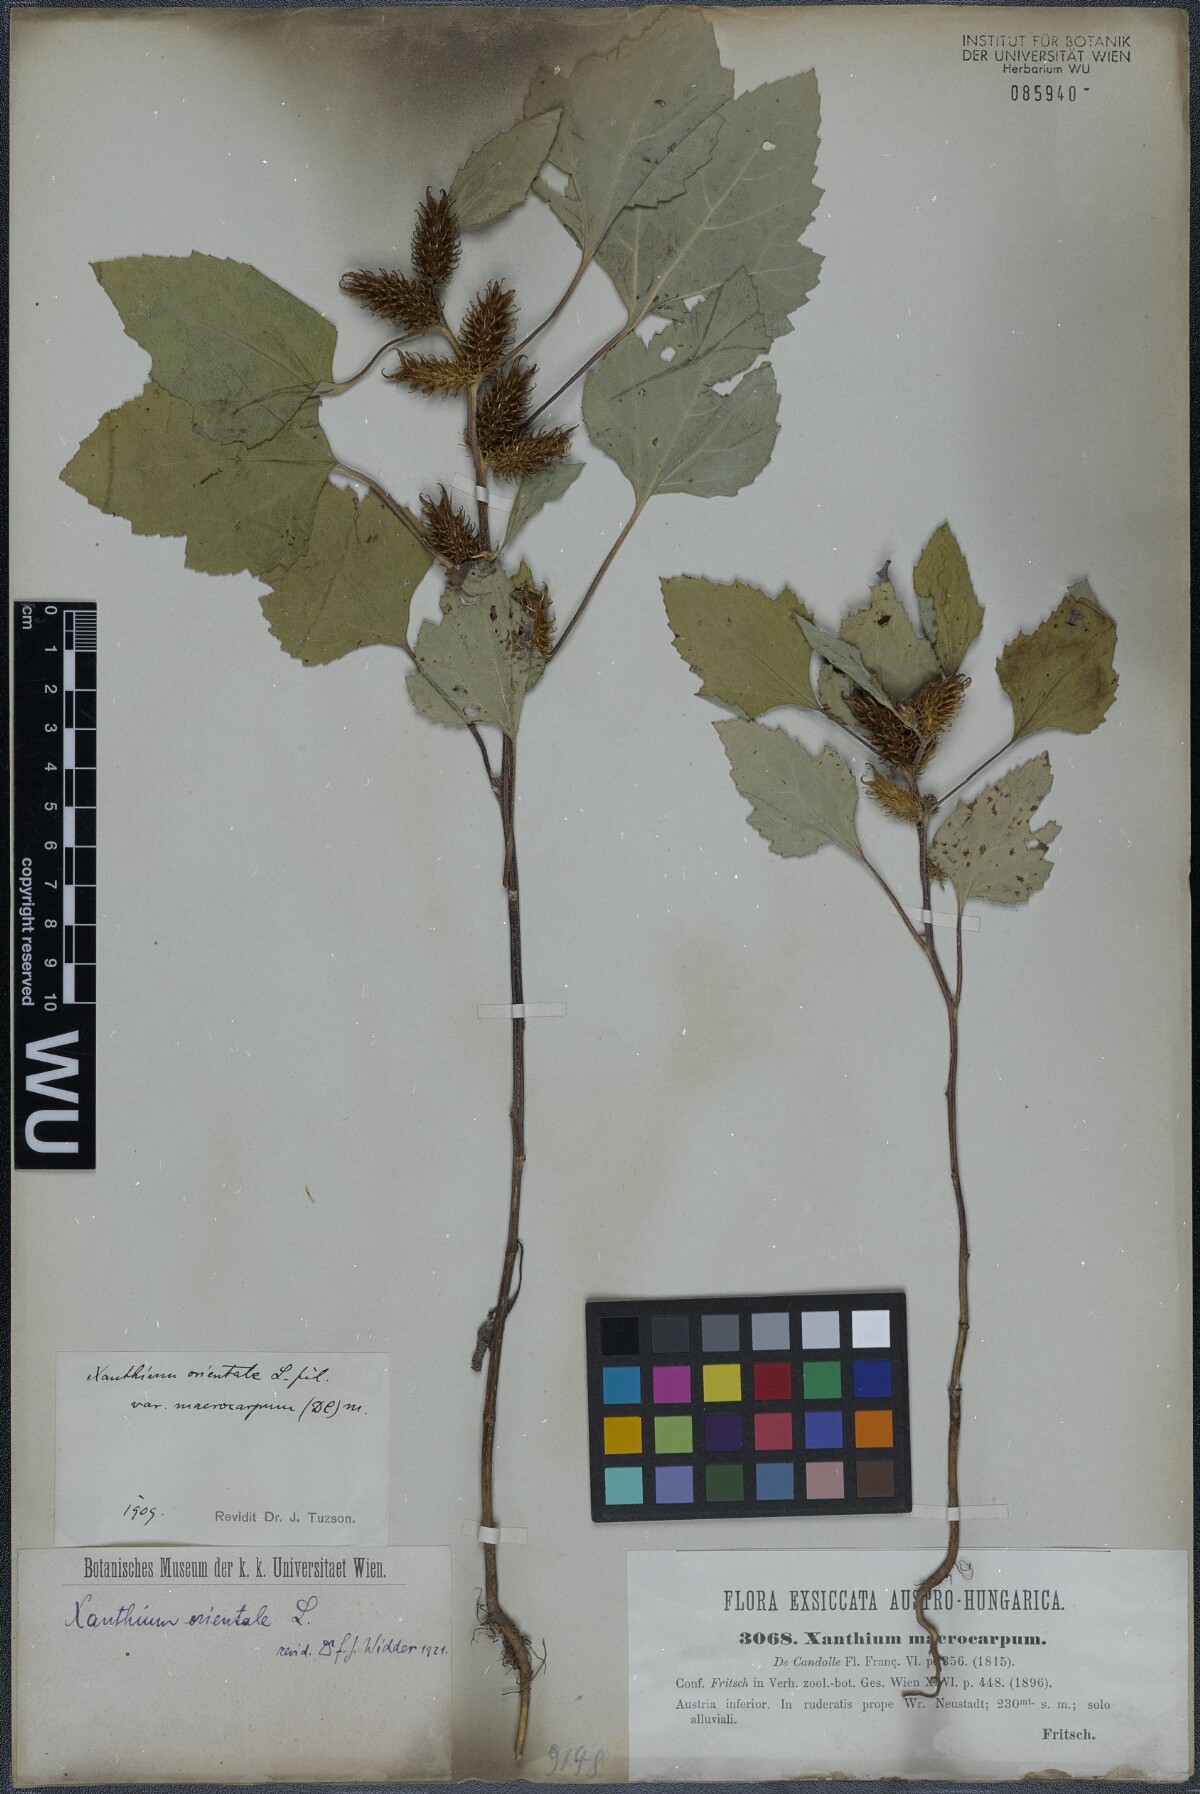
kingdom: Plantae
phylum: Tracheophyta
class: Magnoliopsida
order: Asterales
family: Asteraceae
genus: Xanthium
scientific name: Xanthium orientale
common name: Californian burr
